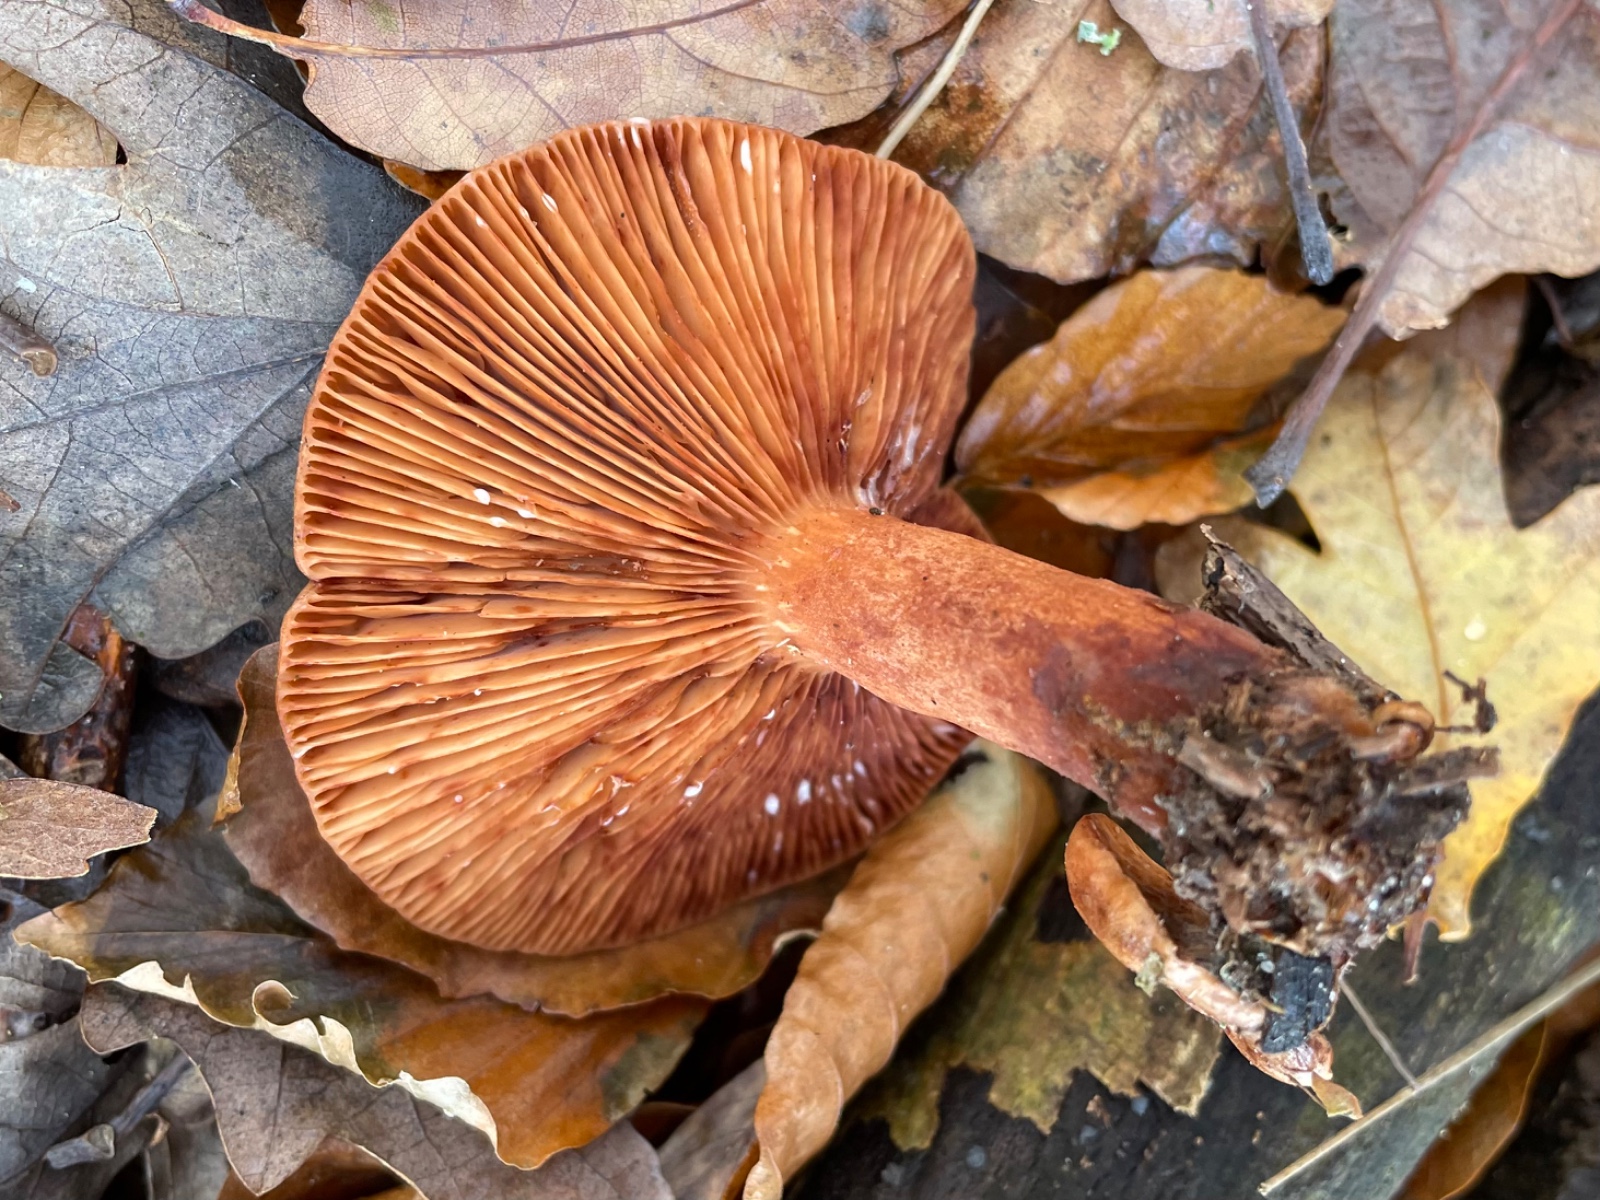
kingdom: Fungi
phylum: Basidiomycota
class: Agaricomycetes
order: Russulales
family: Russulaceae
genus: Lactarius
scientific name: Lactarius quietus
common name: ege-mælkehat
